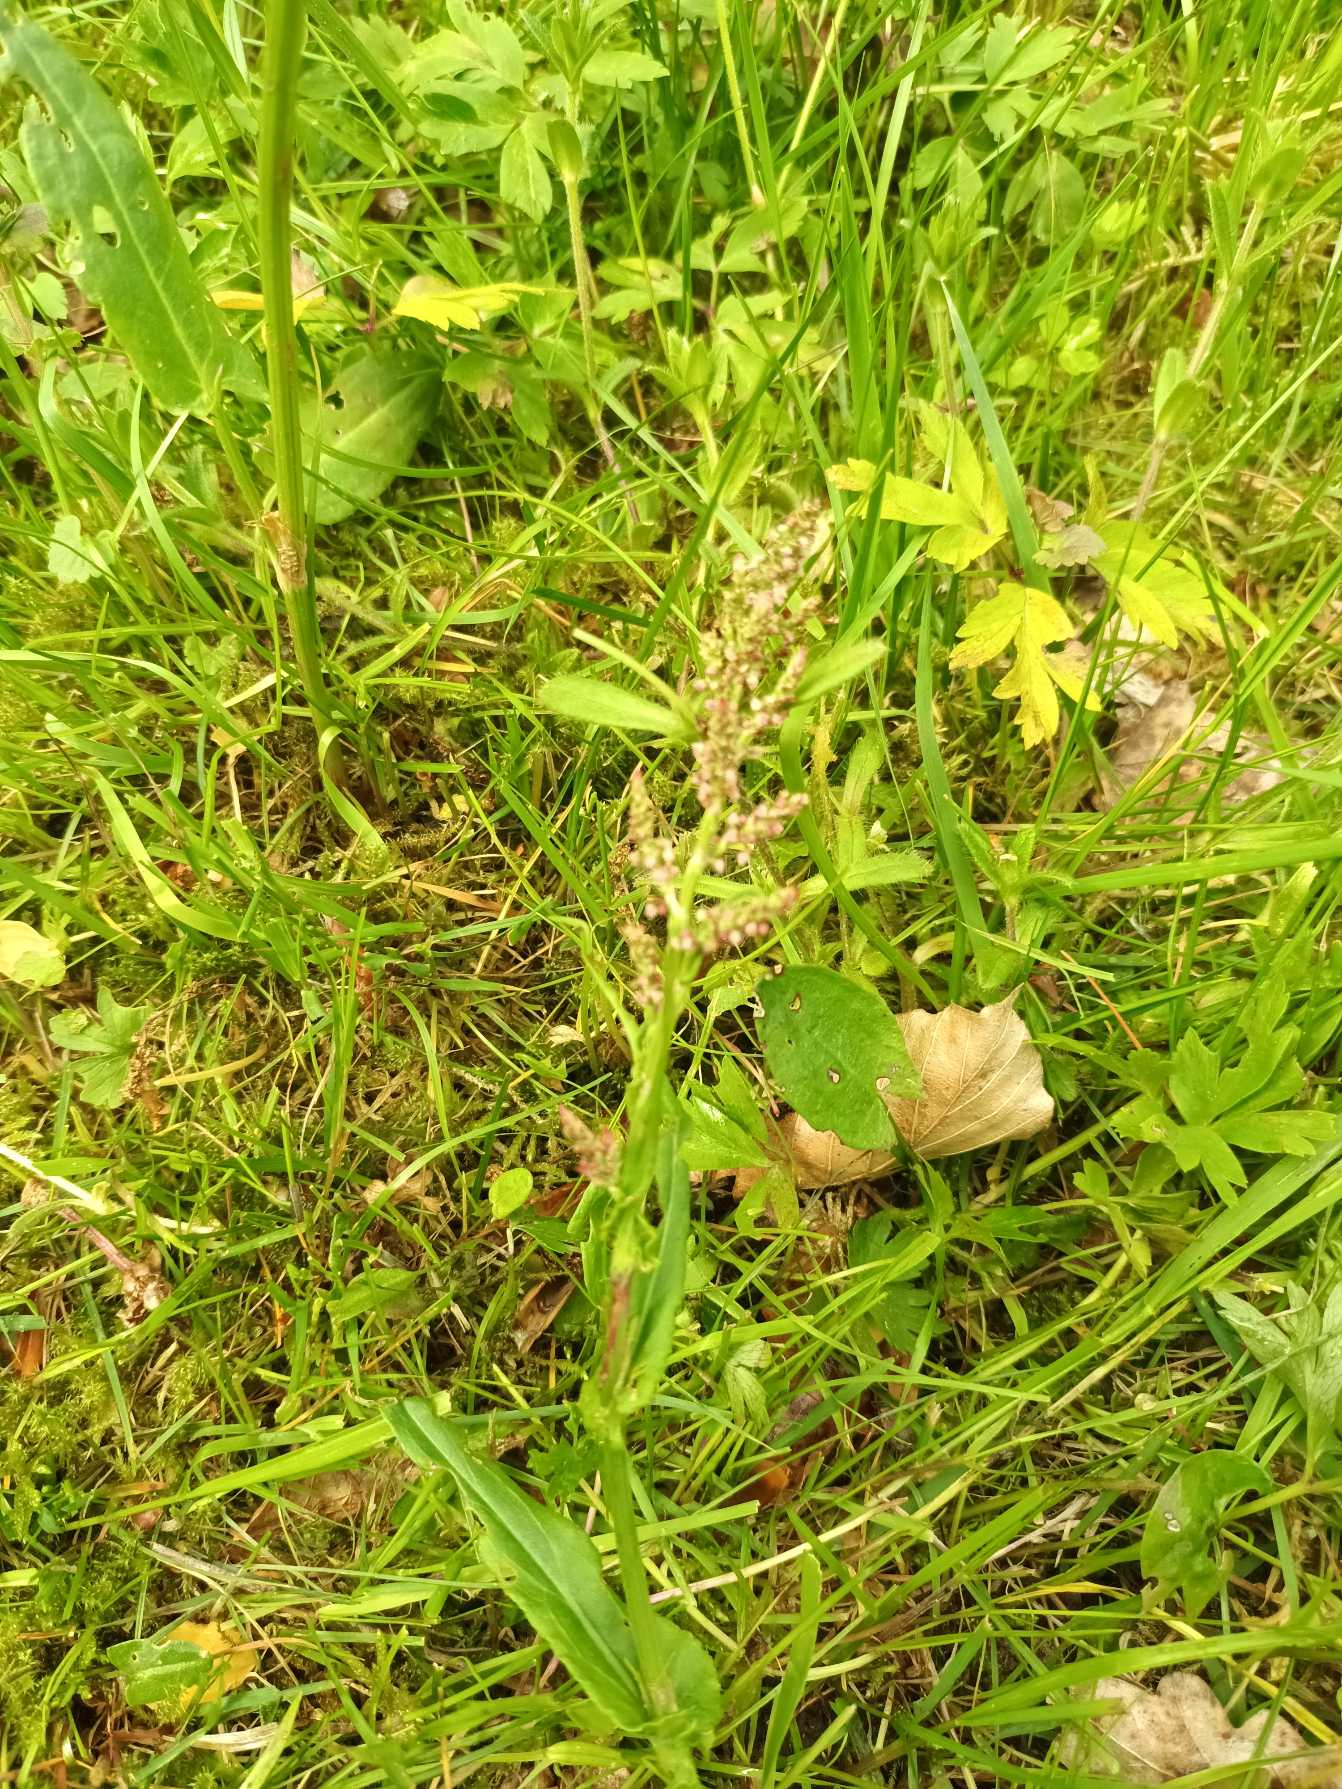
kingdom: Plantae
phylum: Tracheophyta
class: Magnoliopsida
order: Caryophyllales
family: Polygonaceae
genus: Rumex
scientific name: Rumex acetosa
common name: Almindelig syre
